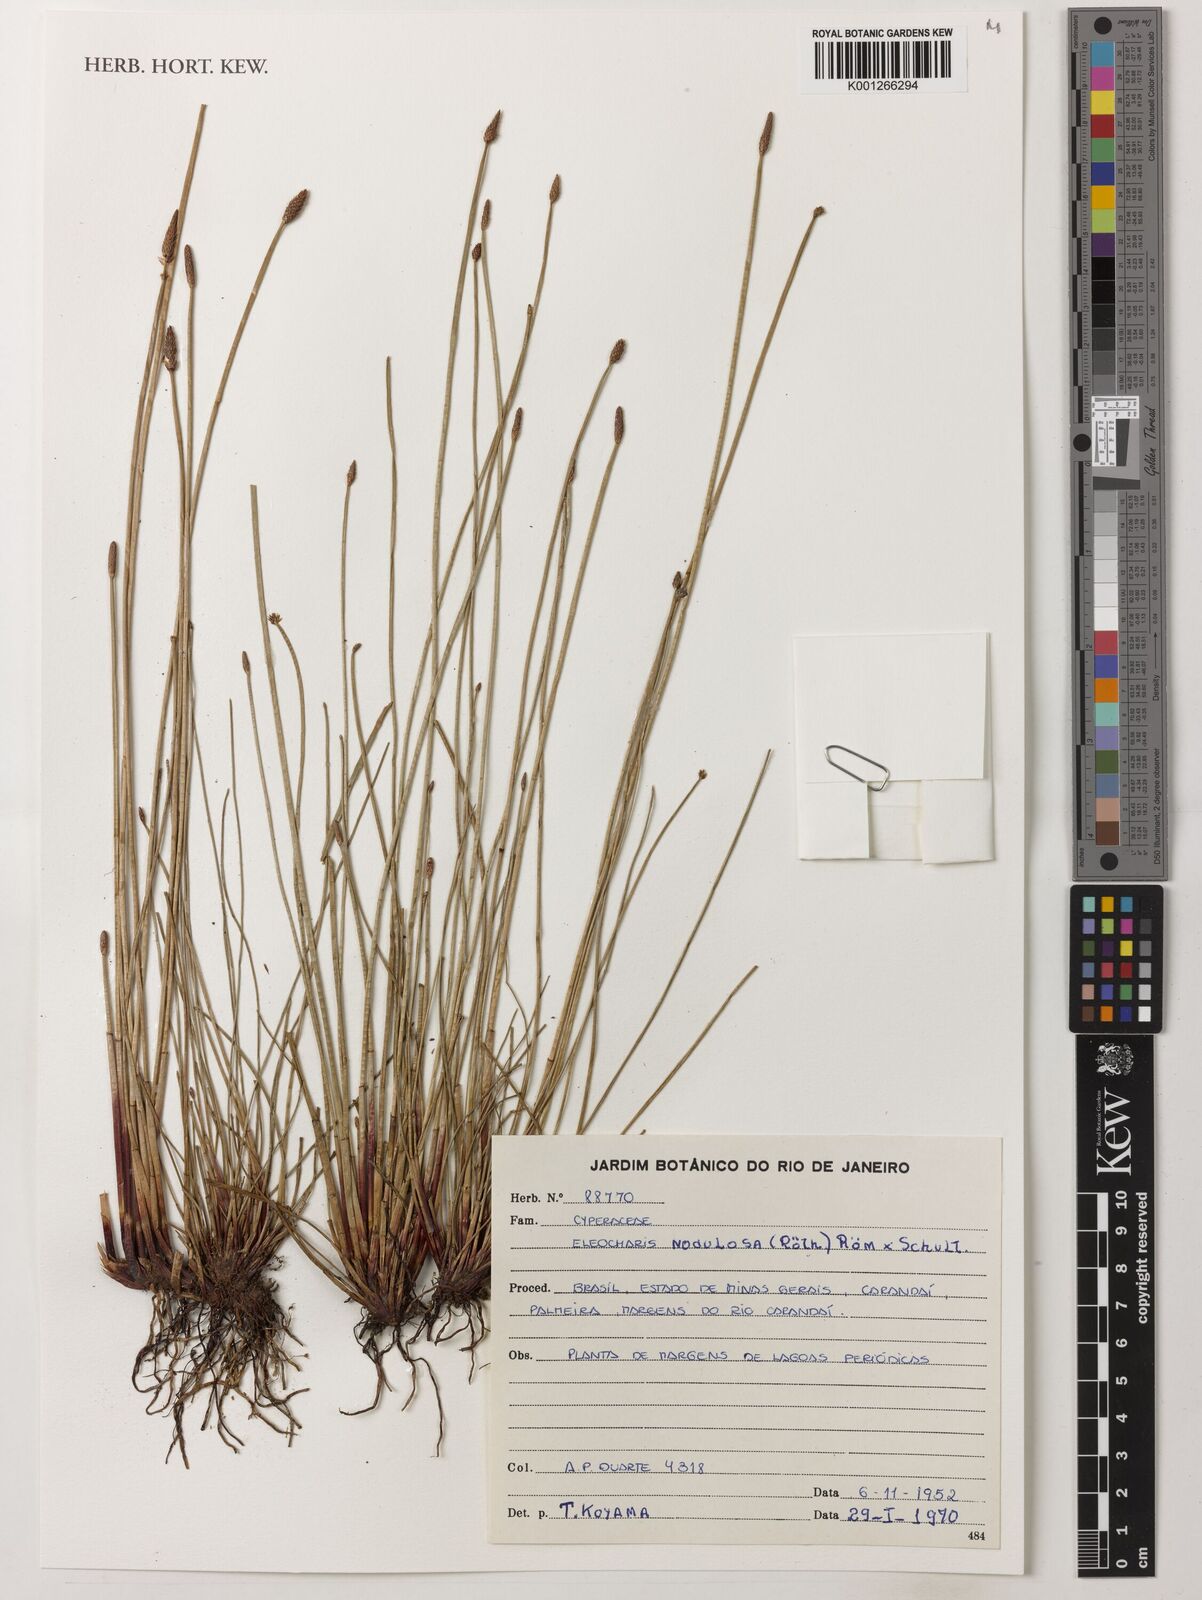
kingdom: Plantae
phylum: Tracheophyta
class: Liliopsida
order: Poales
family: Cyperaceae
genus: Eleocharis
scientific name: Eleocharis montana
